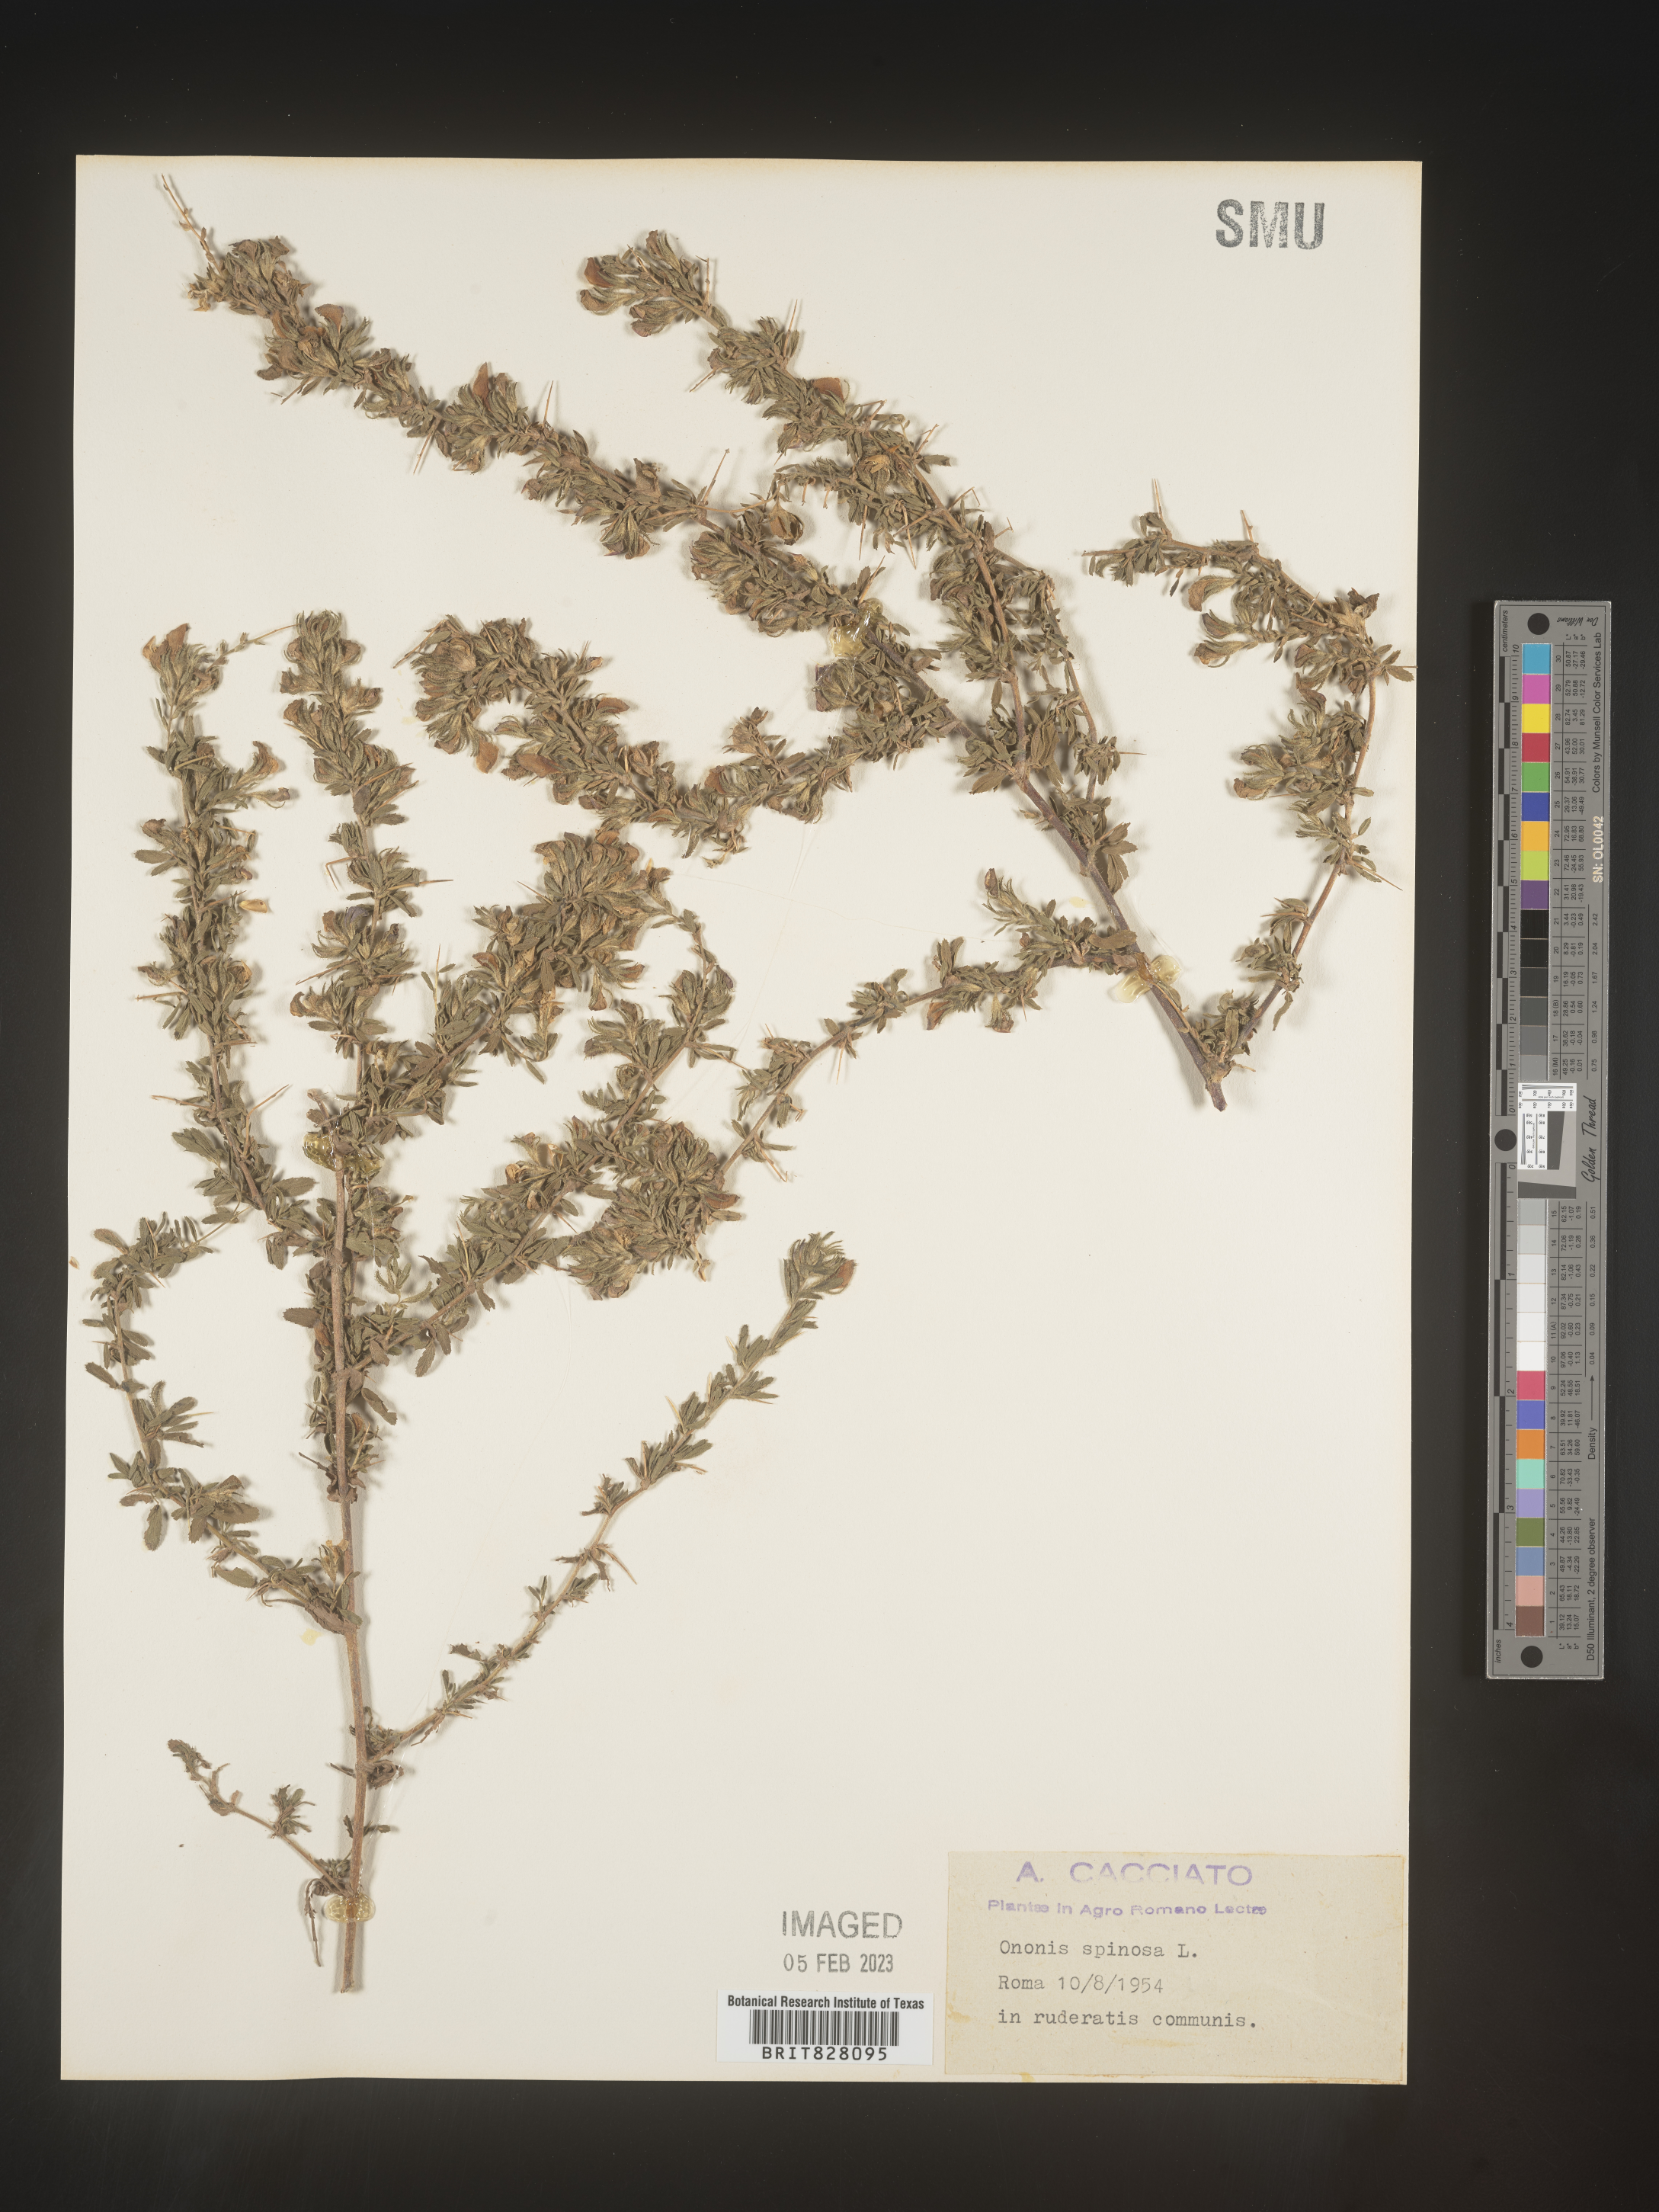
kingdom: Plantae
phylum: Tracheophyta
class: Magnoliopsida
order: Fabales
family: Fabaceae
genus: Ononis
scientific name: Ononis
